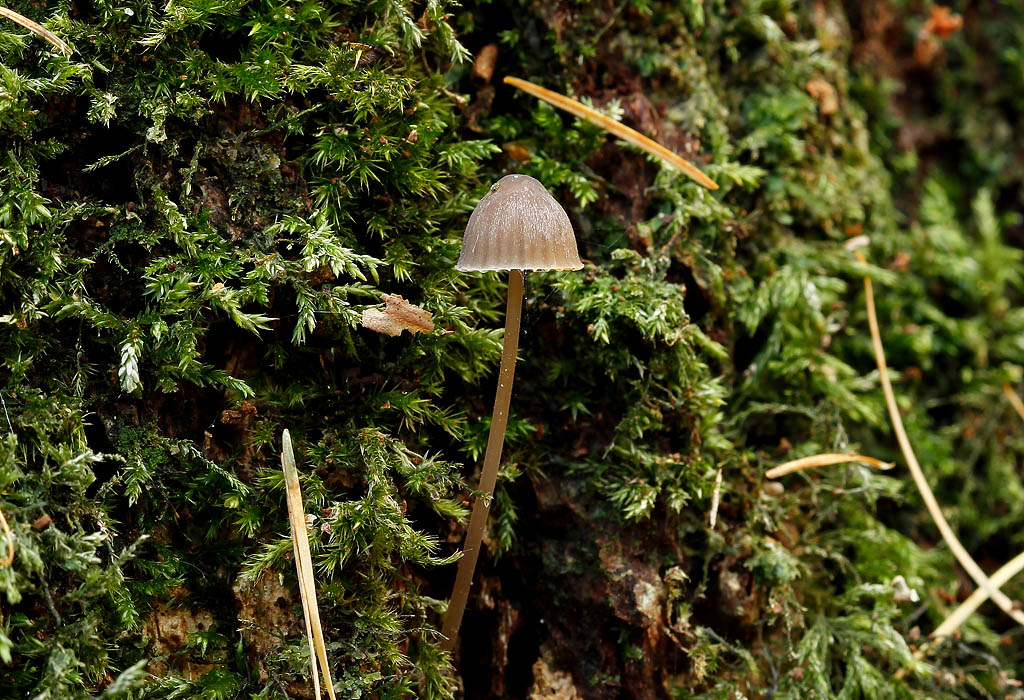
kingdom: Fungi
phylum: Basidiomycota
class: Agaricomycetes
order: Agaricales
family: Mycenaceae
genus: Mycena
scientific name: Mycena erubescens
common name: galde-huesvamp
